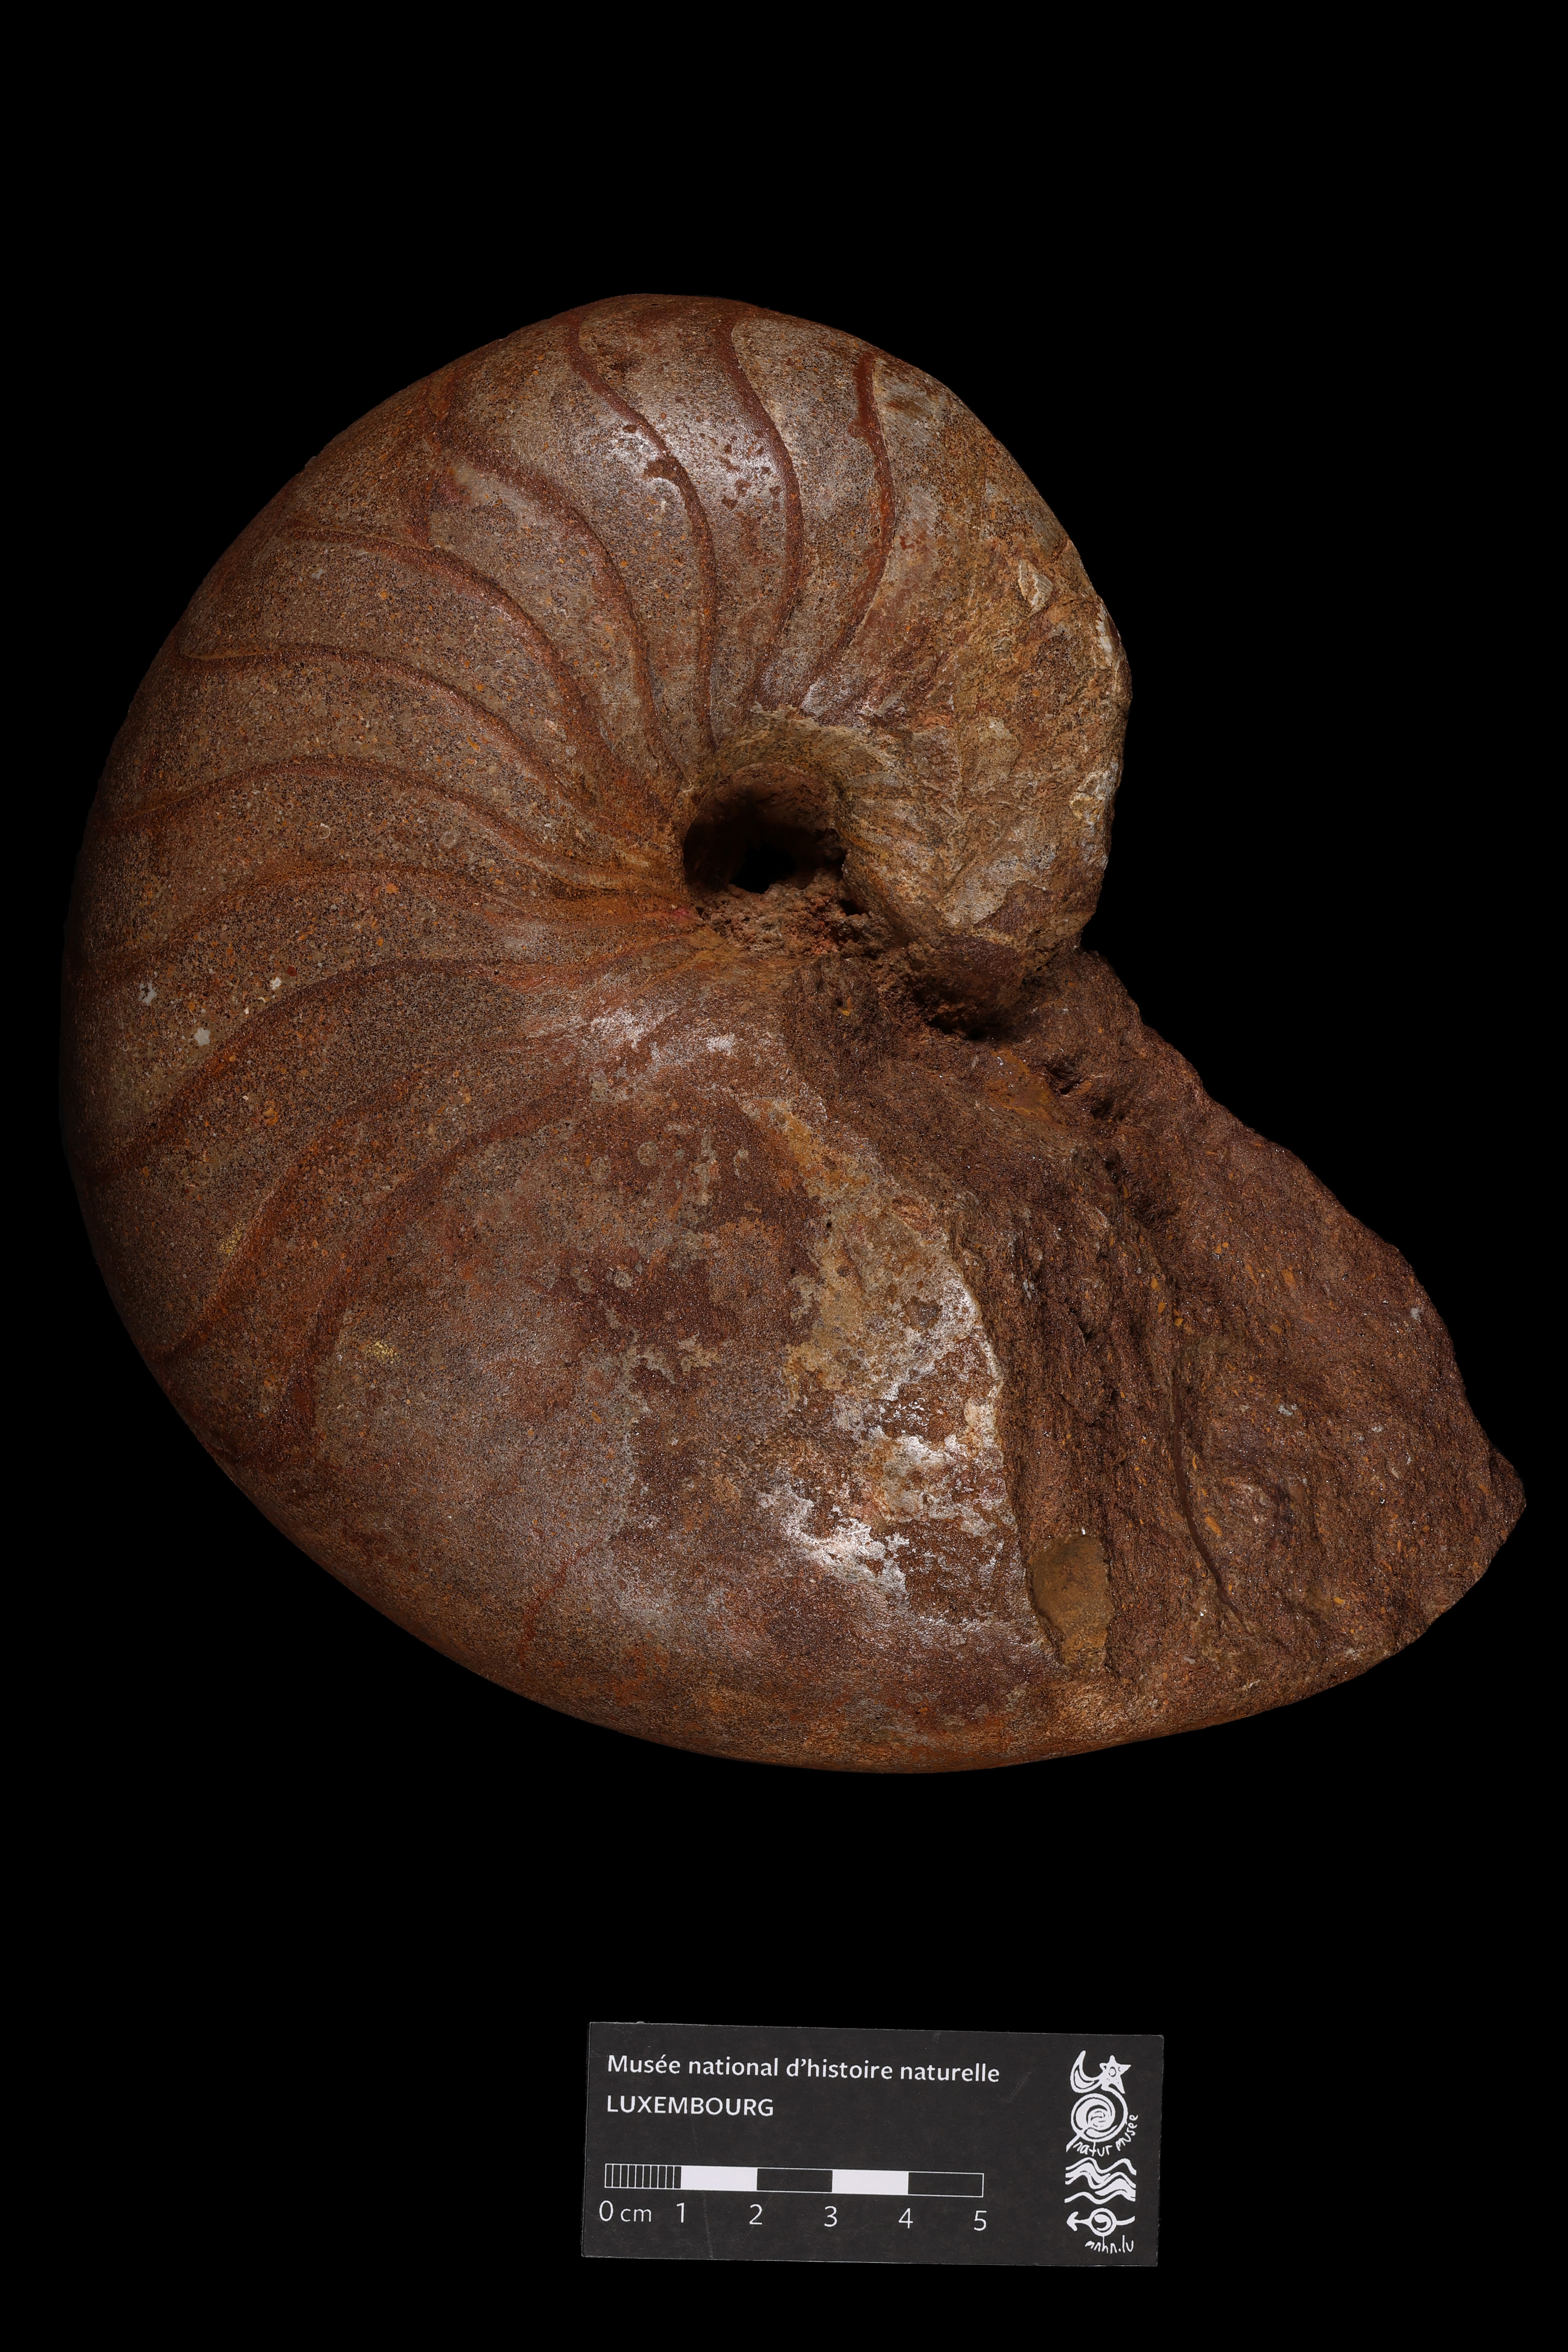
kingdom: Animalia
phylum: Mollusca
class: Cephalopoda
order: Nautilida
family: Nautilidae
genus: Cenoceras
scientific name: Cenoceras
